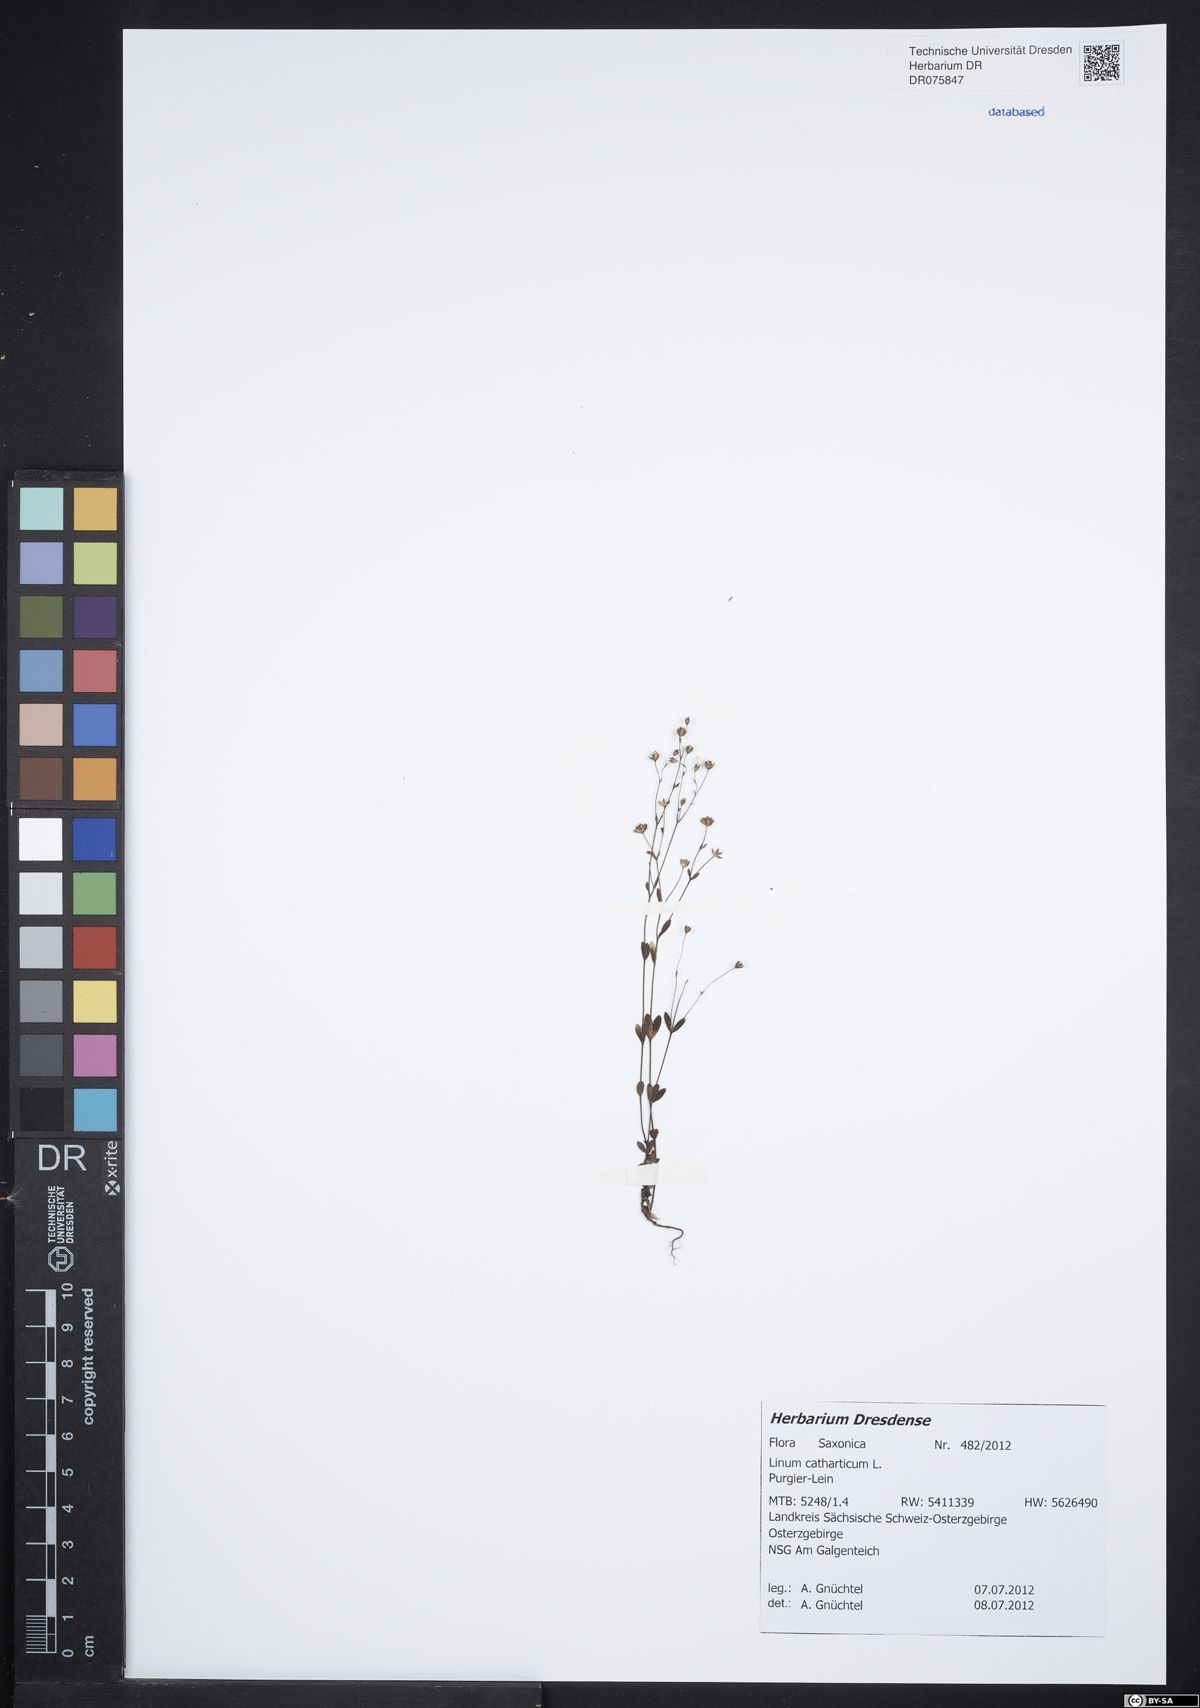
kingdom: Plantae
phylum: Tracheophyta
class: Magnoliopsida
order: Malpighiales
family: Linaceae
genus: Linum
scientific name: Linum catharticum
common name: Fairy flax
